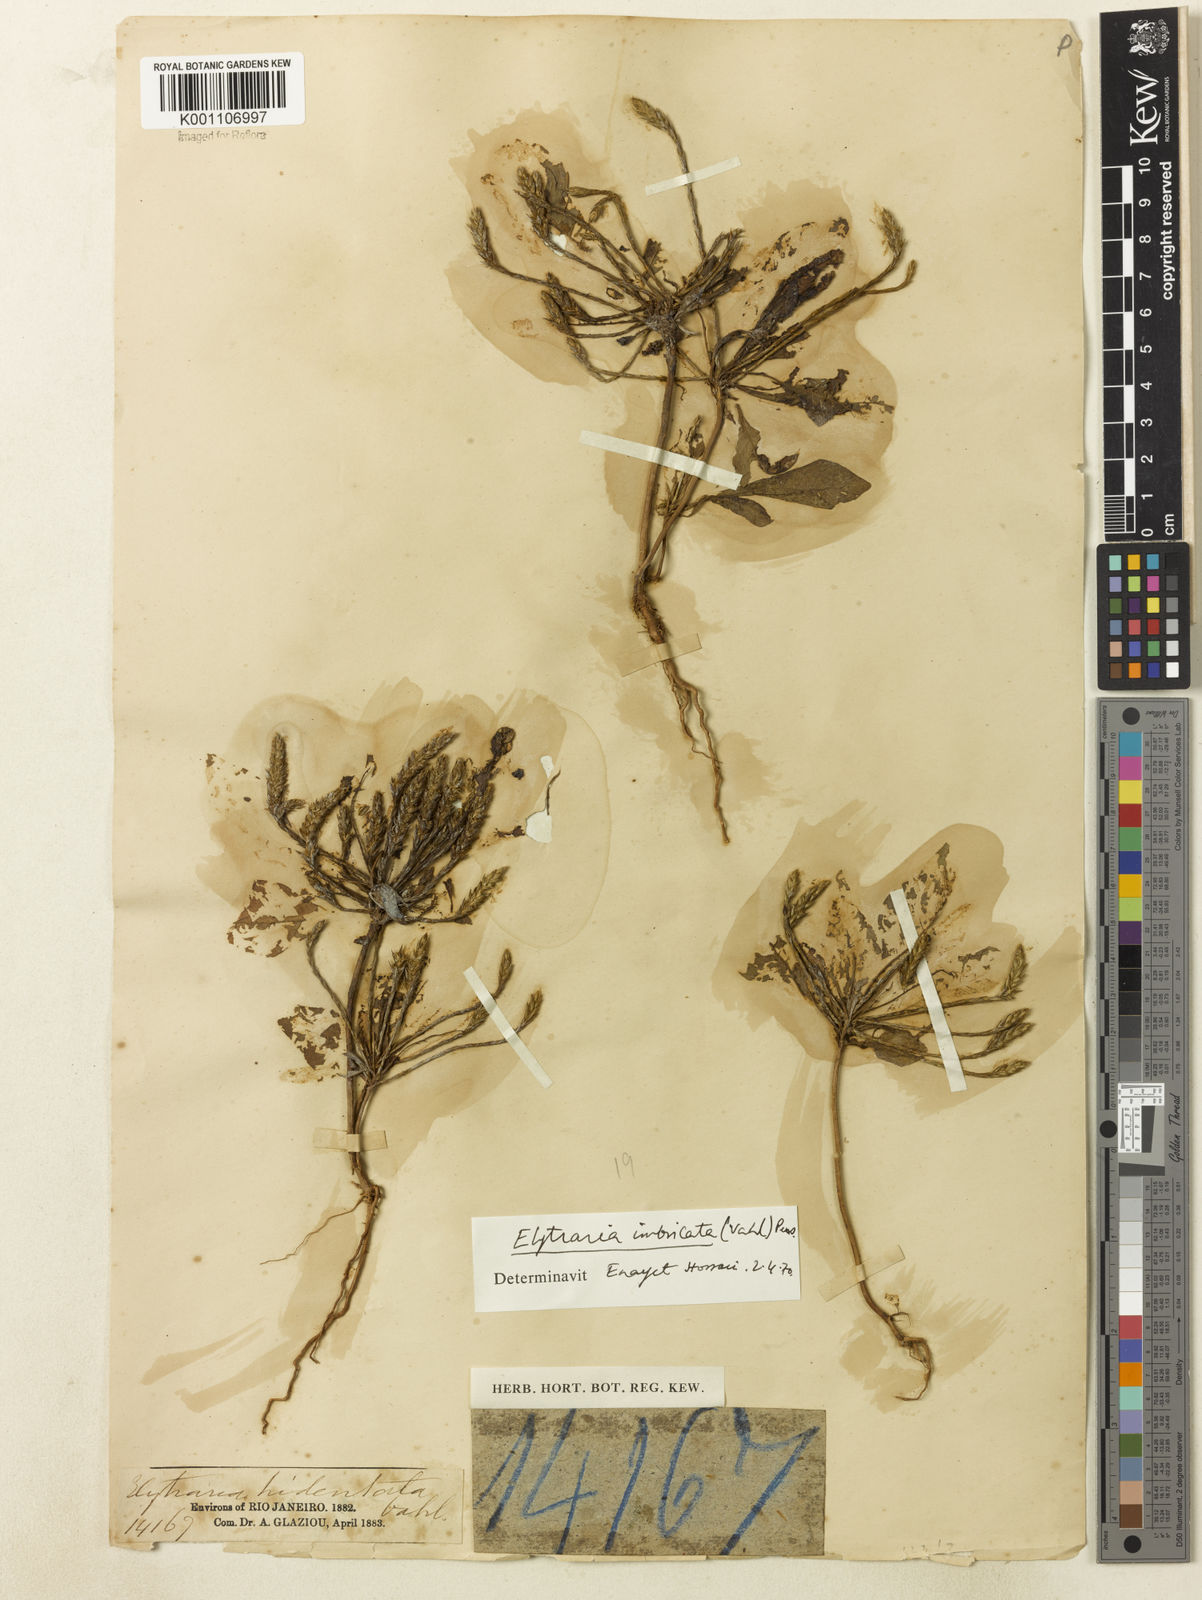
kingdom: Plantae
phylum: Tracheophyta
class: Magnoliopsida
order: Lamiales
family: Acanthaceae
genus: Elytraria
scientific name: Elytraria imbricata
